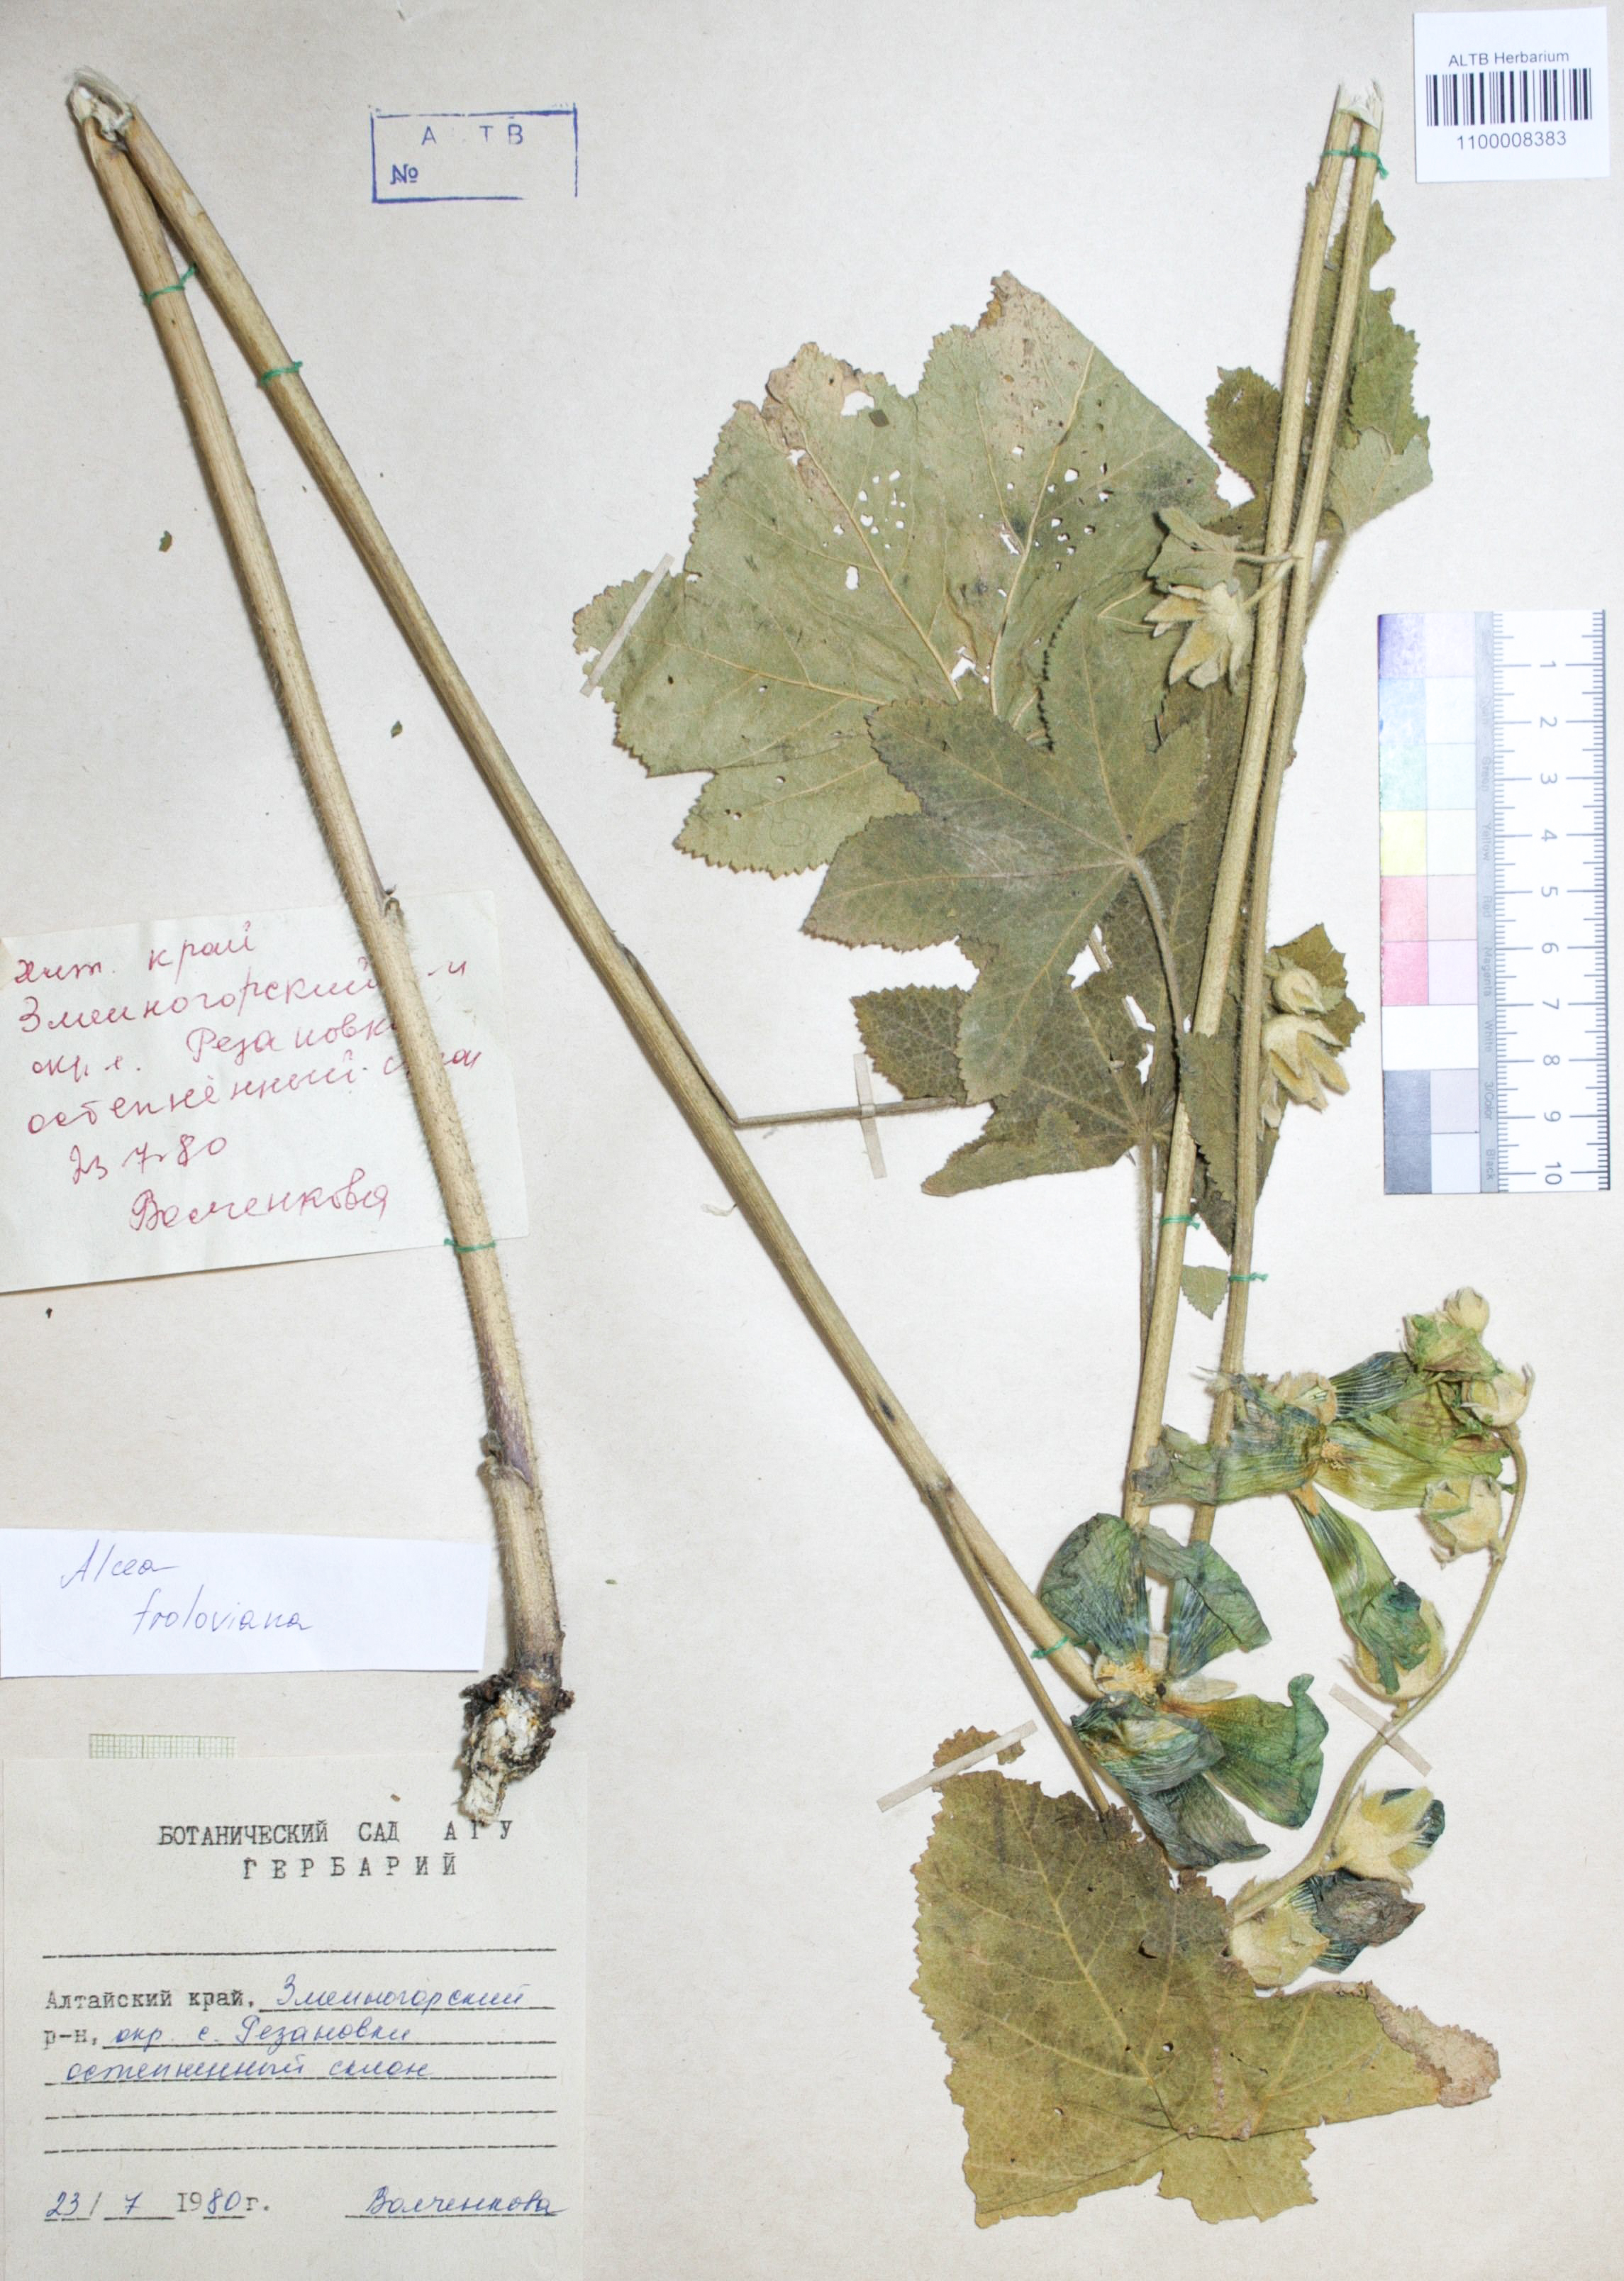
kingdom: Plantae
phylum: Tracheophyta
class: Magnoliopsida
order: Malvales
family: Malvaceae
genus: Alcea
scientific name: Alcea froloviana
